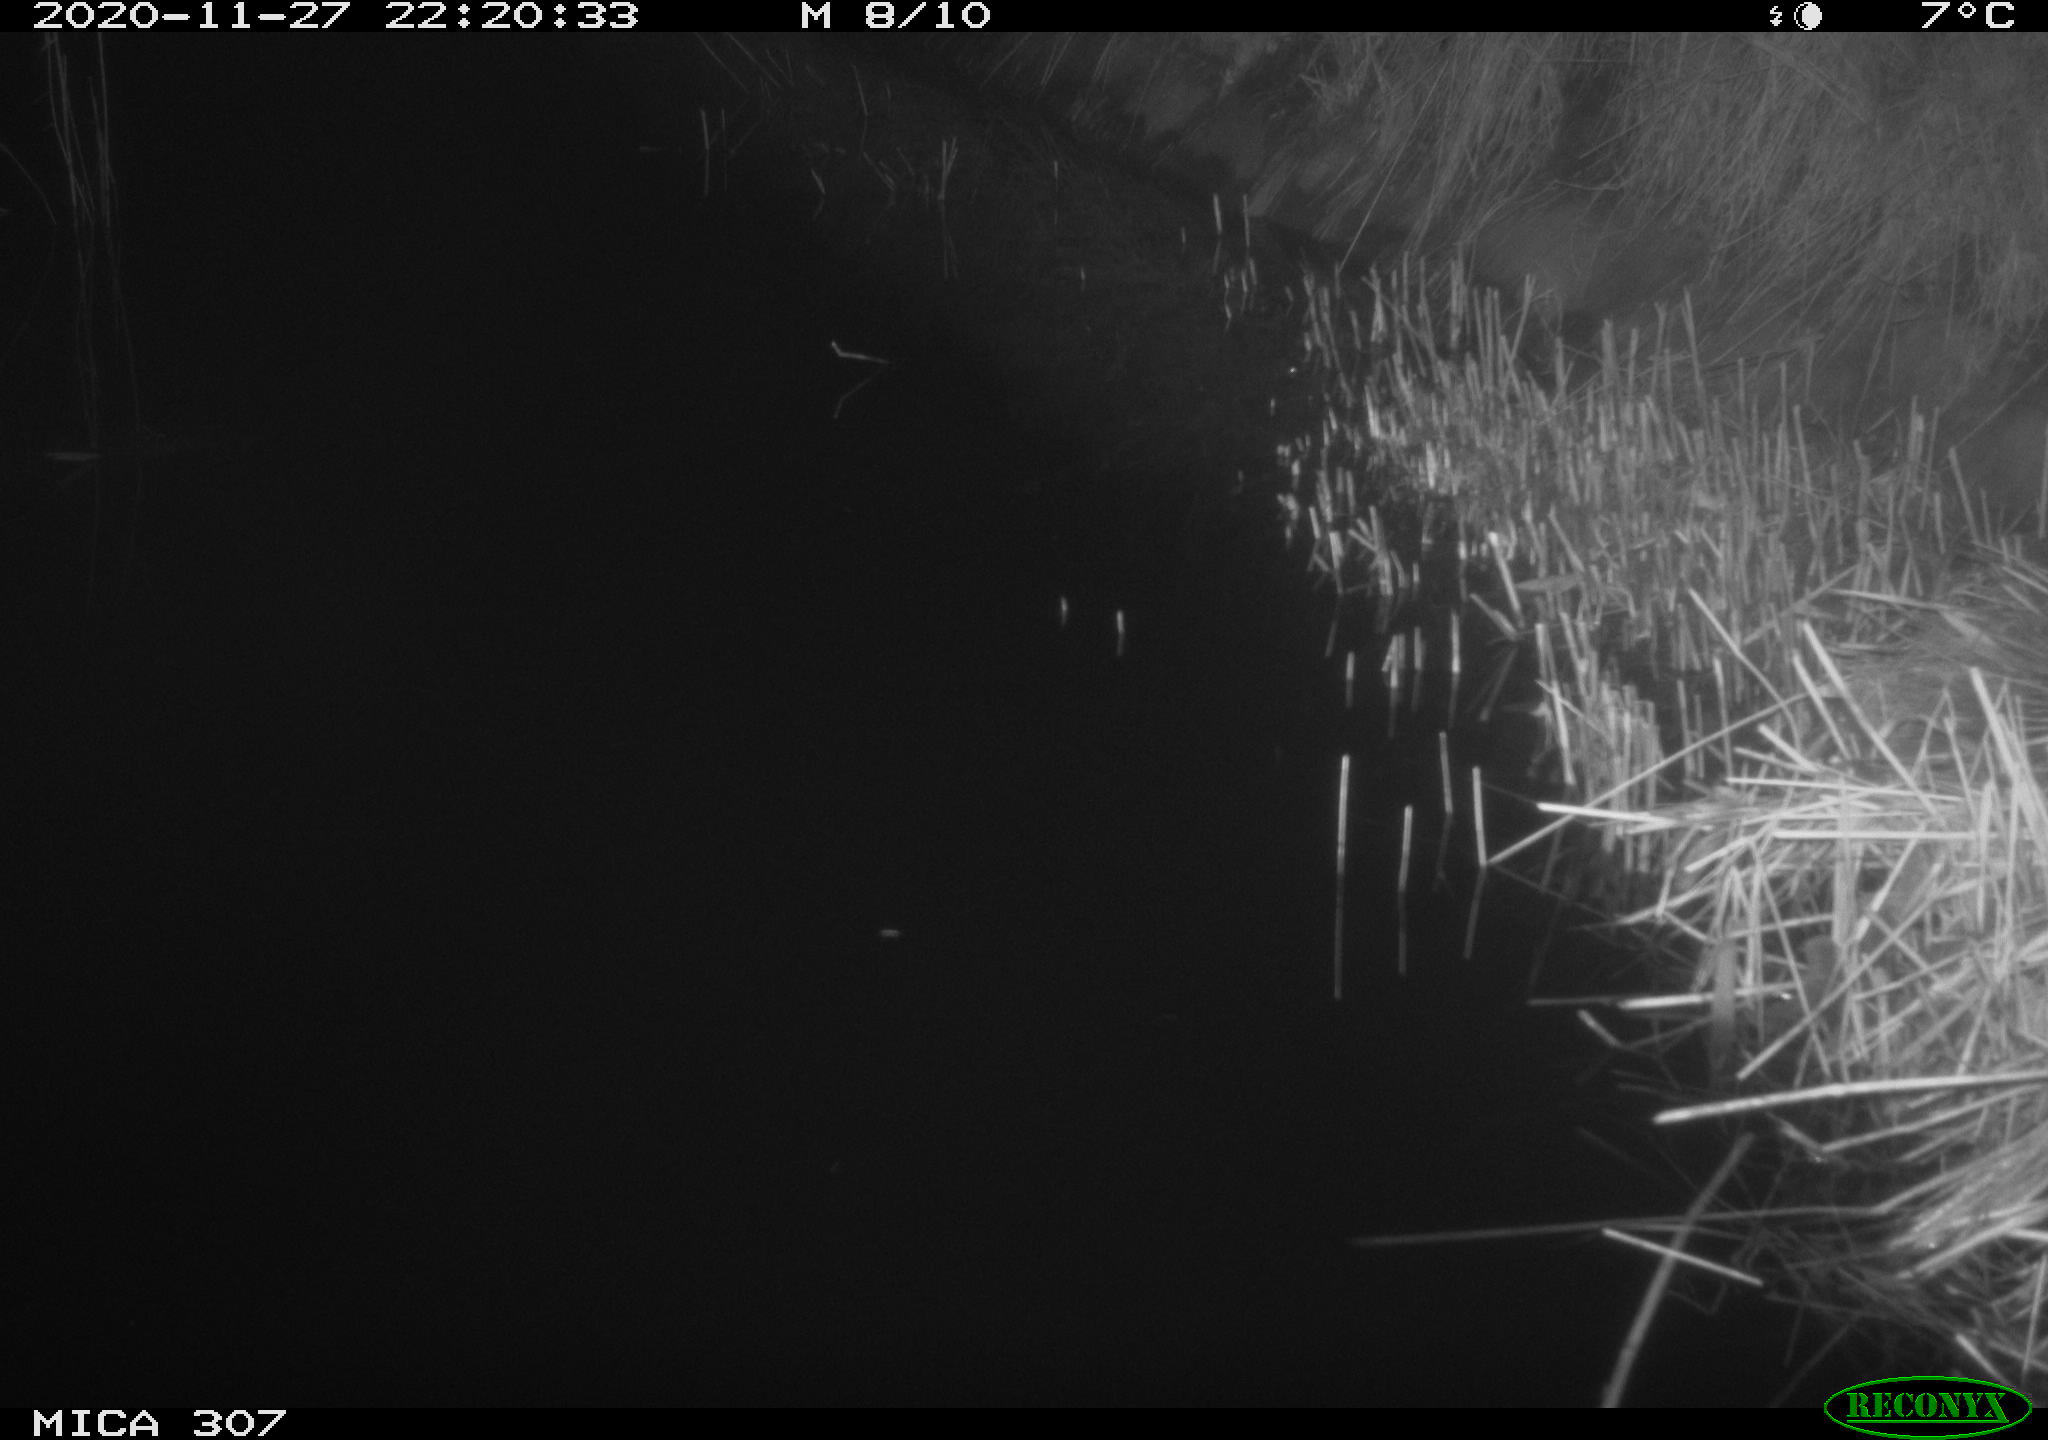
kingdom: Animalia
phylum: Chordata
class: Mammalia
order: Rodentia
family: Muridae
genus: Rattus
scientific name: Rattus norvegicus
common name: Brown rat
